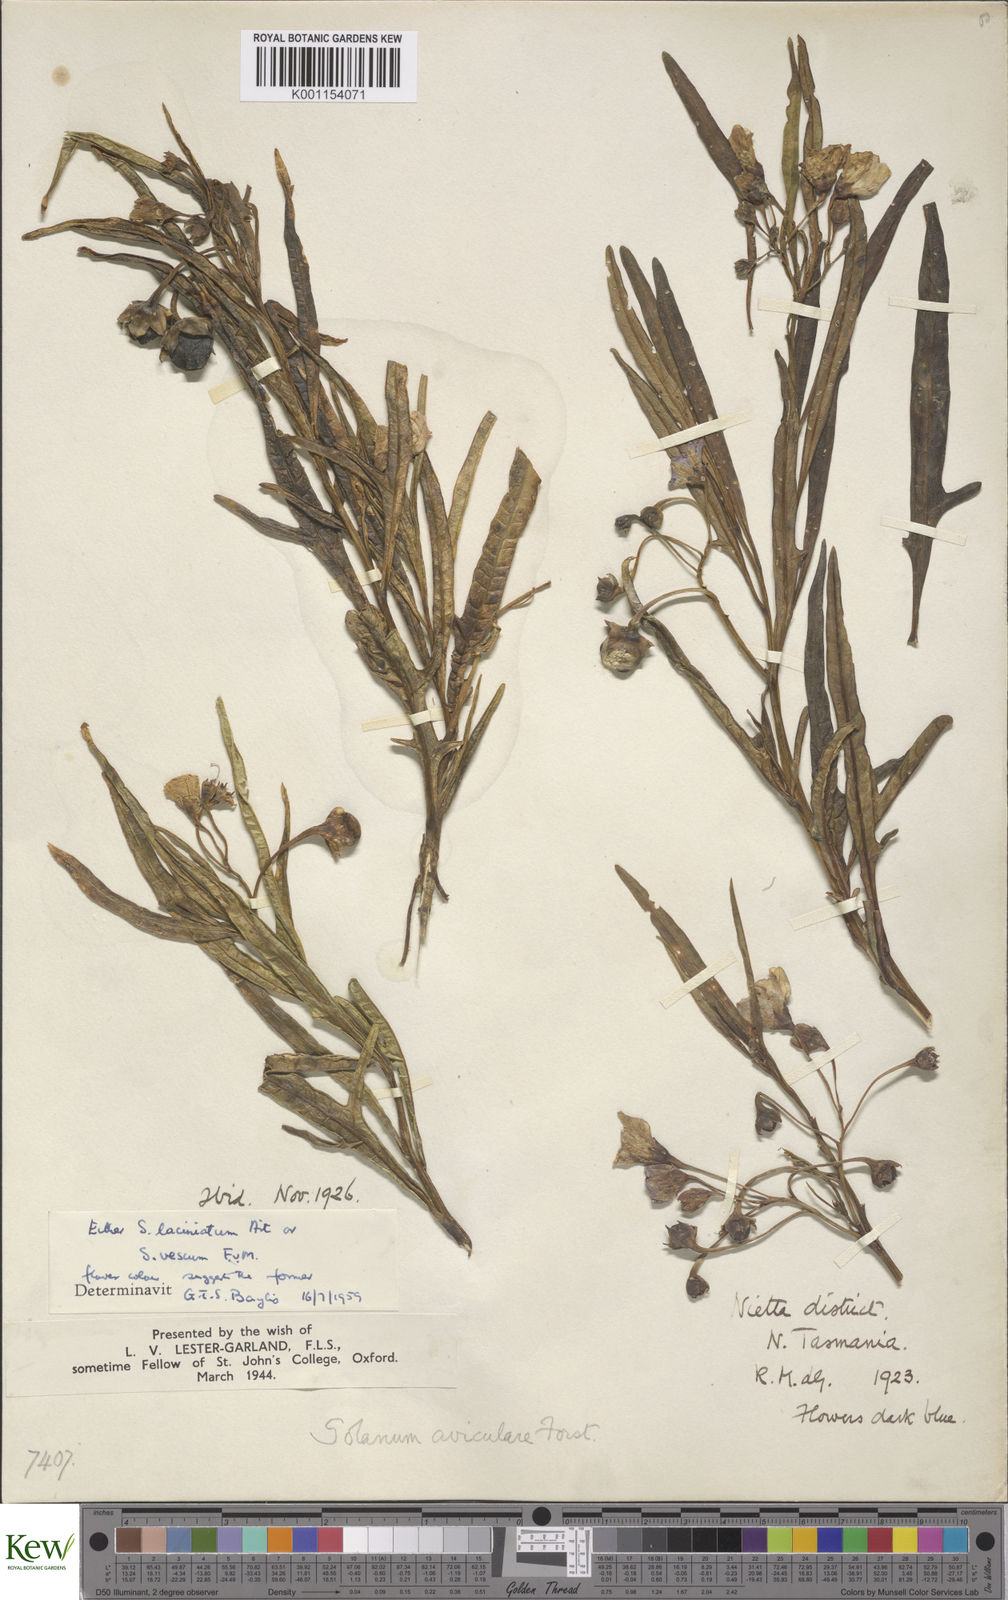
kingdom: Plantae
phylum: Tracheophyta
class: Magnoliopsida
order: Solanales
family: Solanaceae
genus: Solanum
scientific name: Solanum vescum
